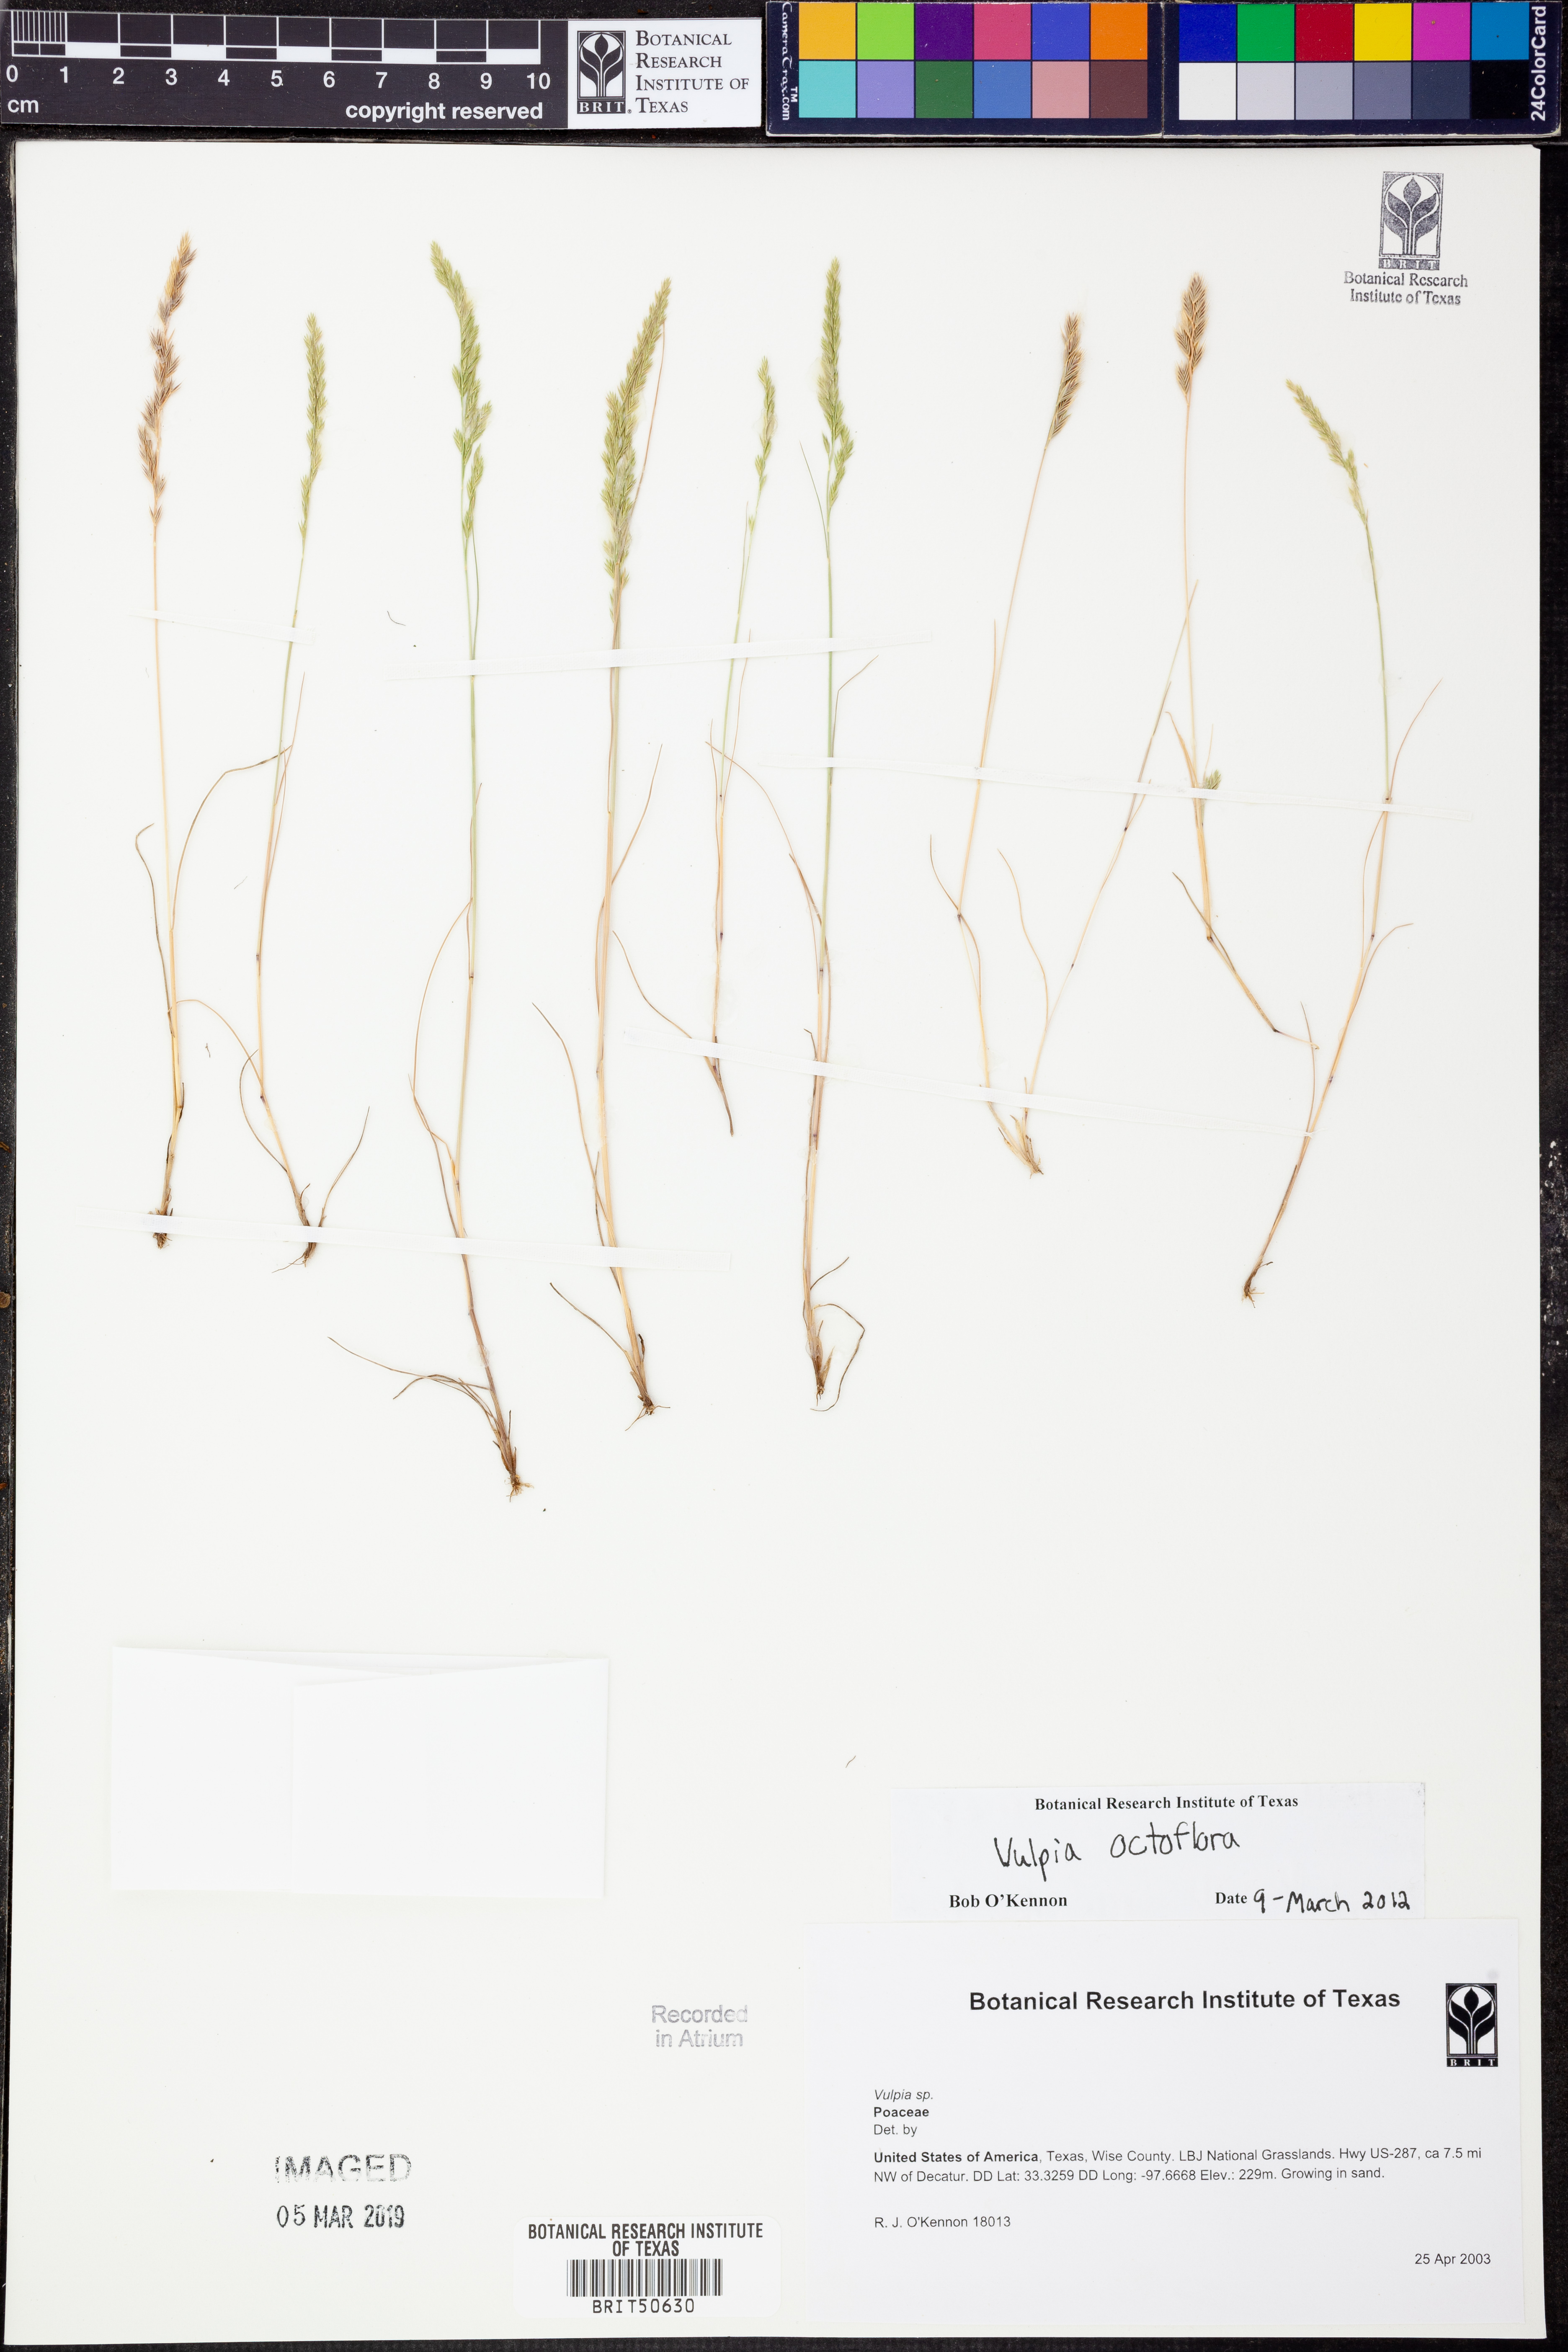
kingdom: Plantae
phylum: Tracheophyta
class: Liliopsida
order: Poales
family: Poaceae
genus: Festuca
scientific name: Festuca octoflora
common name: Sixweeks grass
